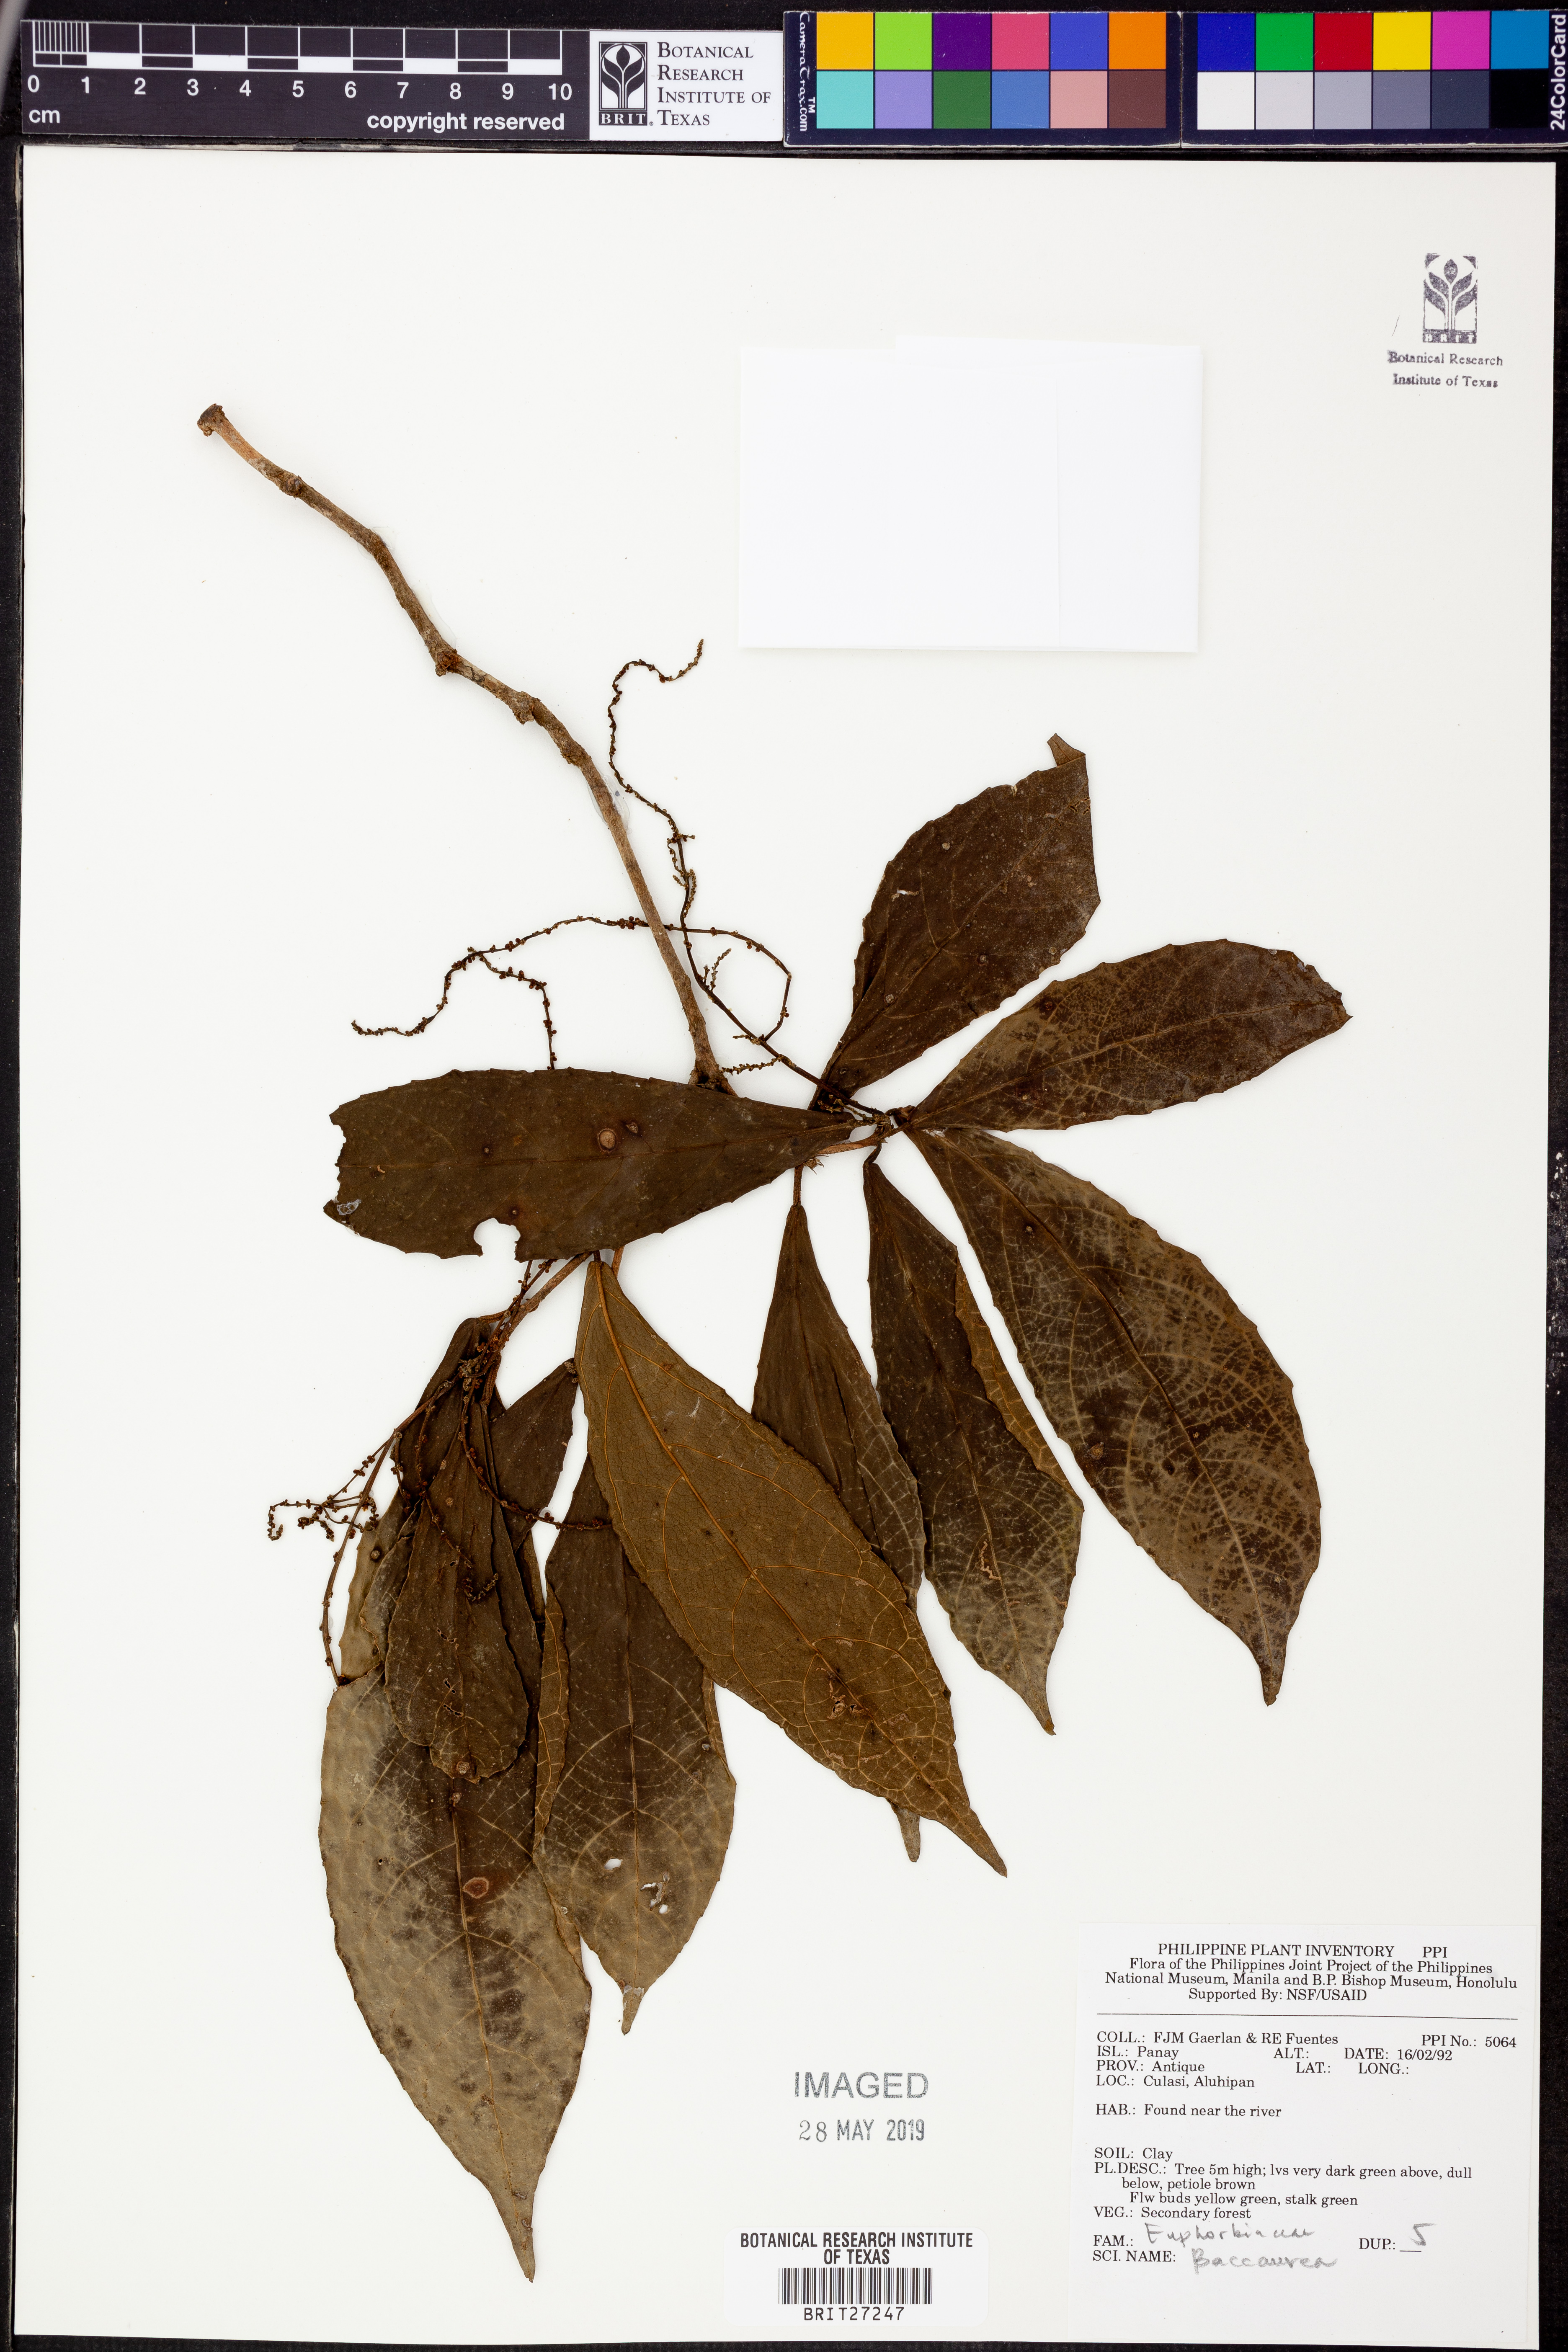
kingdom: Plantae
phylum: Tracheophyta
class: Magnoliopsida
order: Malpighiales
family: Phyllanthaceae
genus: Baccaurea
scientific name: Baccaurea
